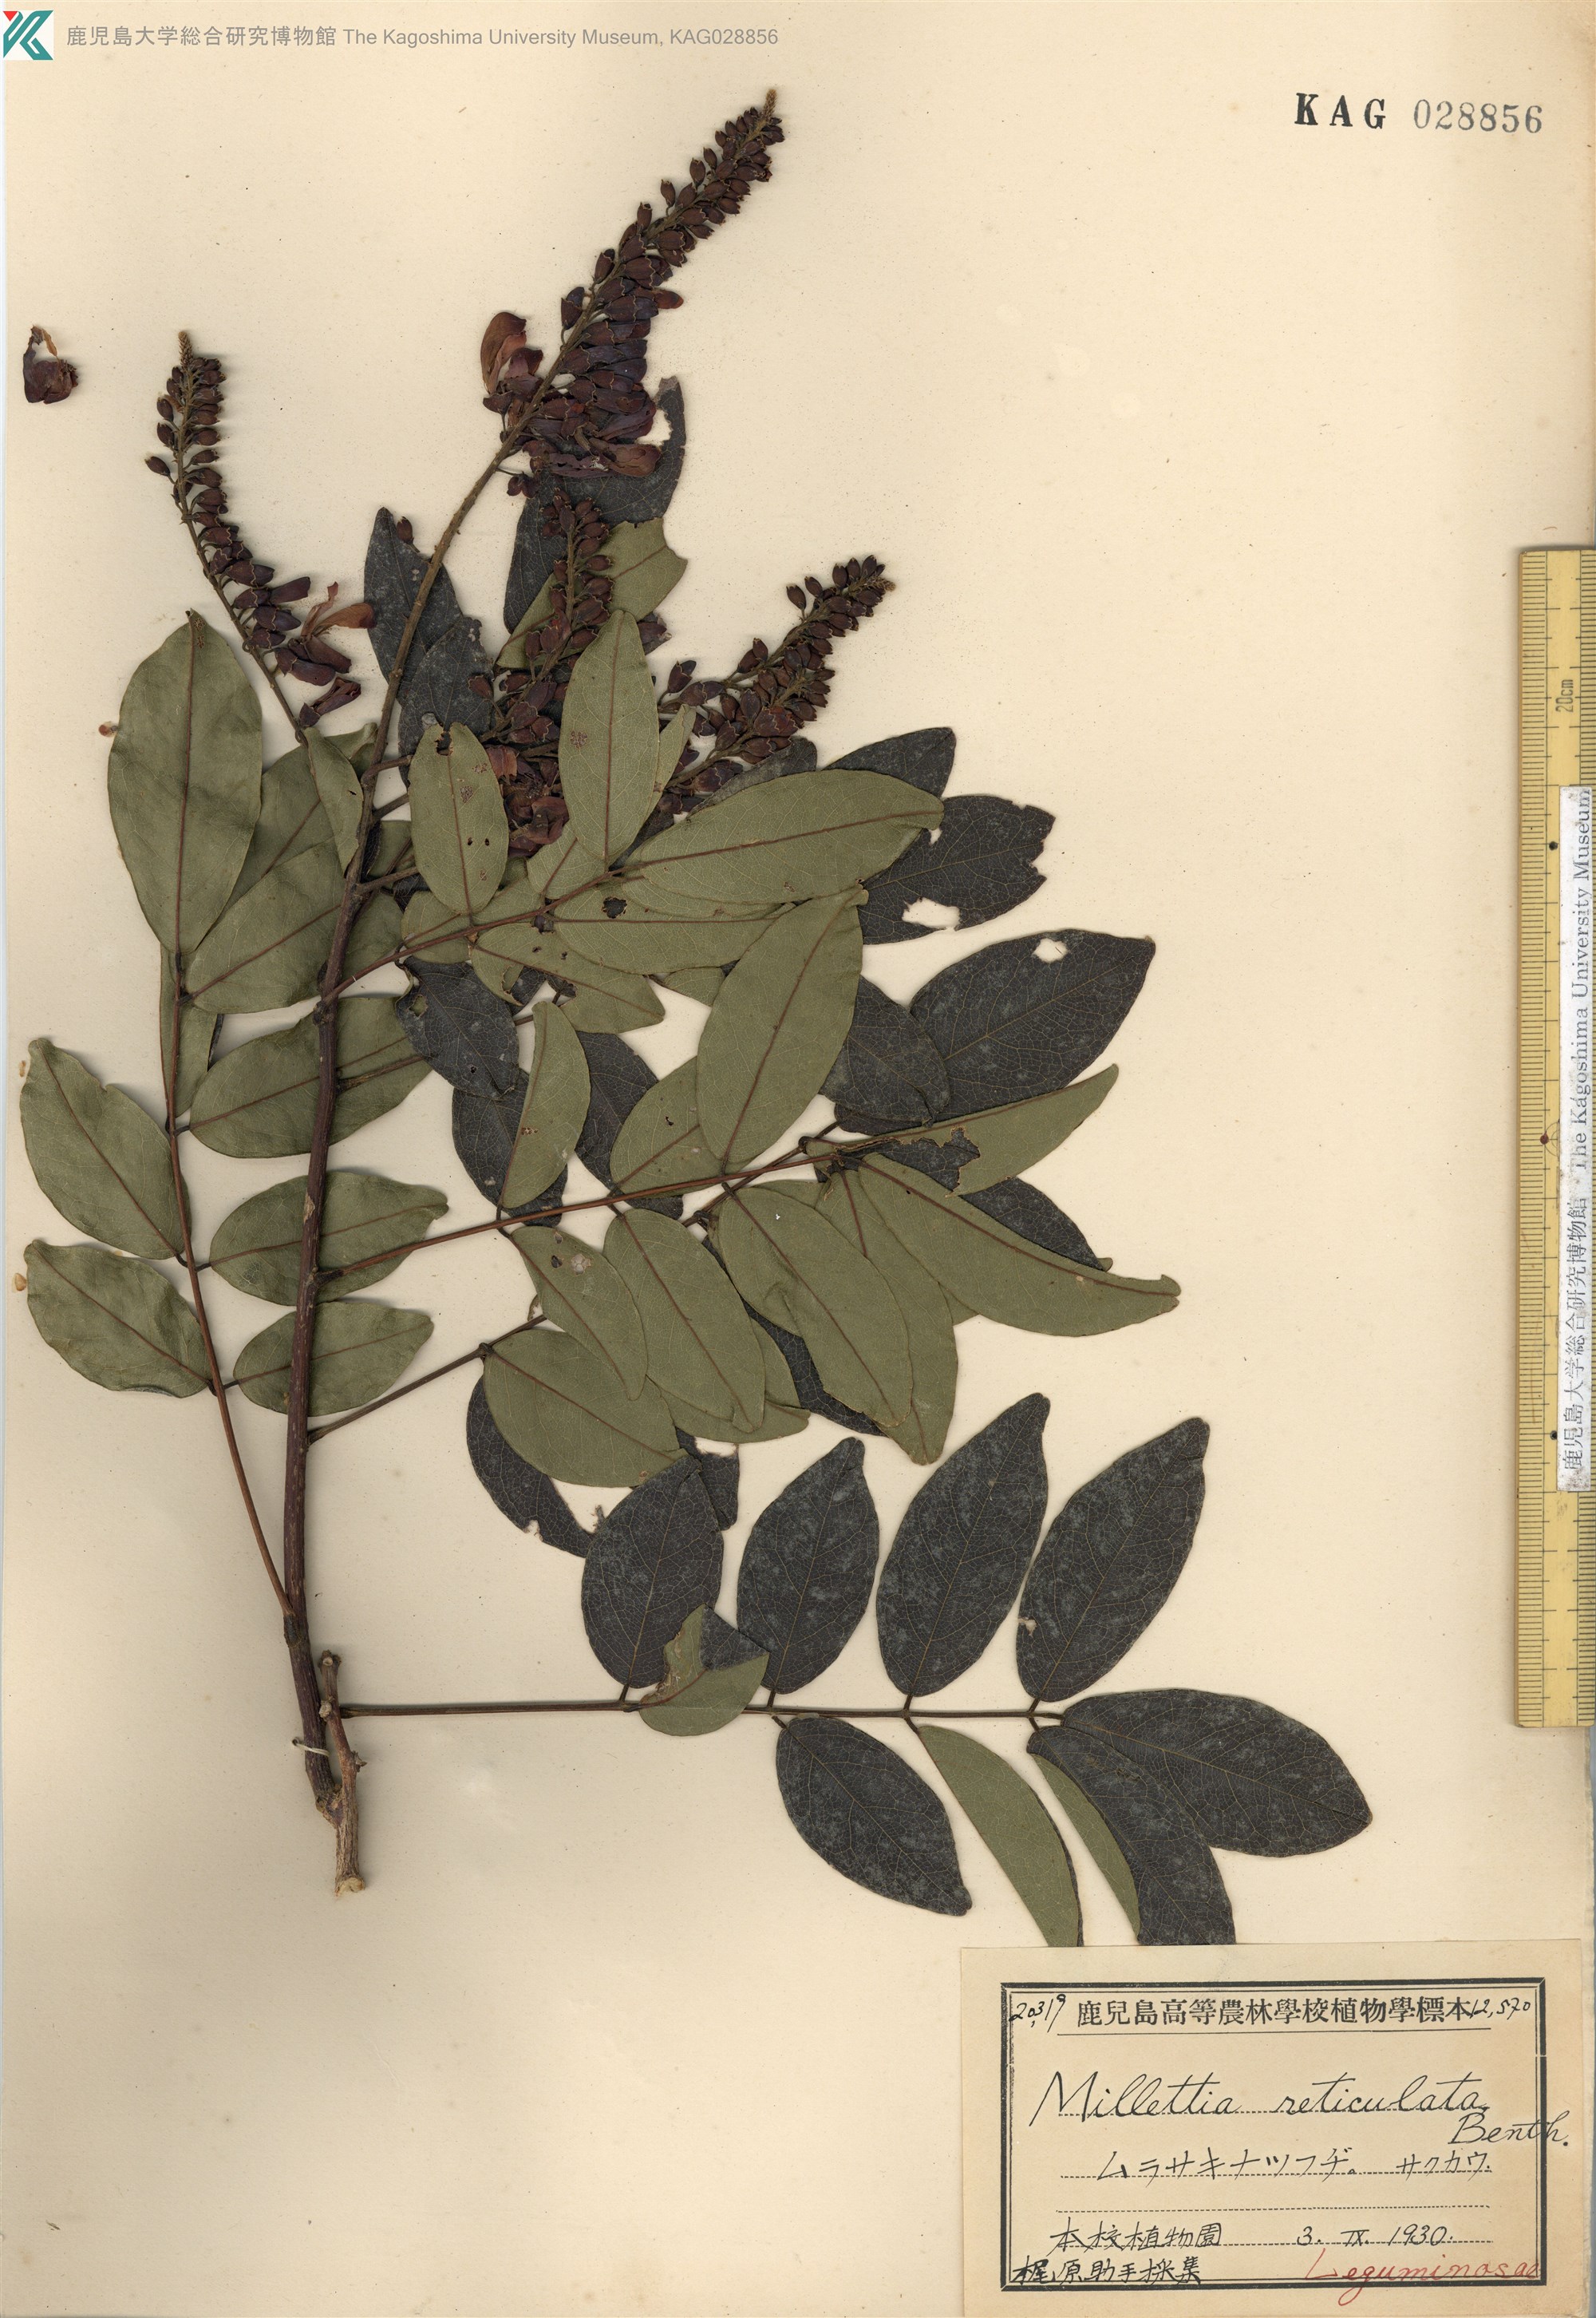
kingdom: Plantae
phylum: Tracheophyta
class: Magnoliopsida
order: Fabales
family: Fabaceae
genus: Wisteriopsis
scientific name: Wisteriopsis reticulata
